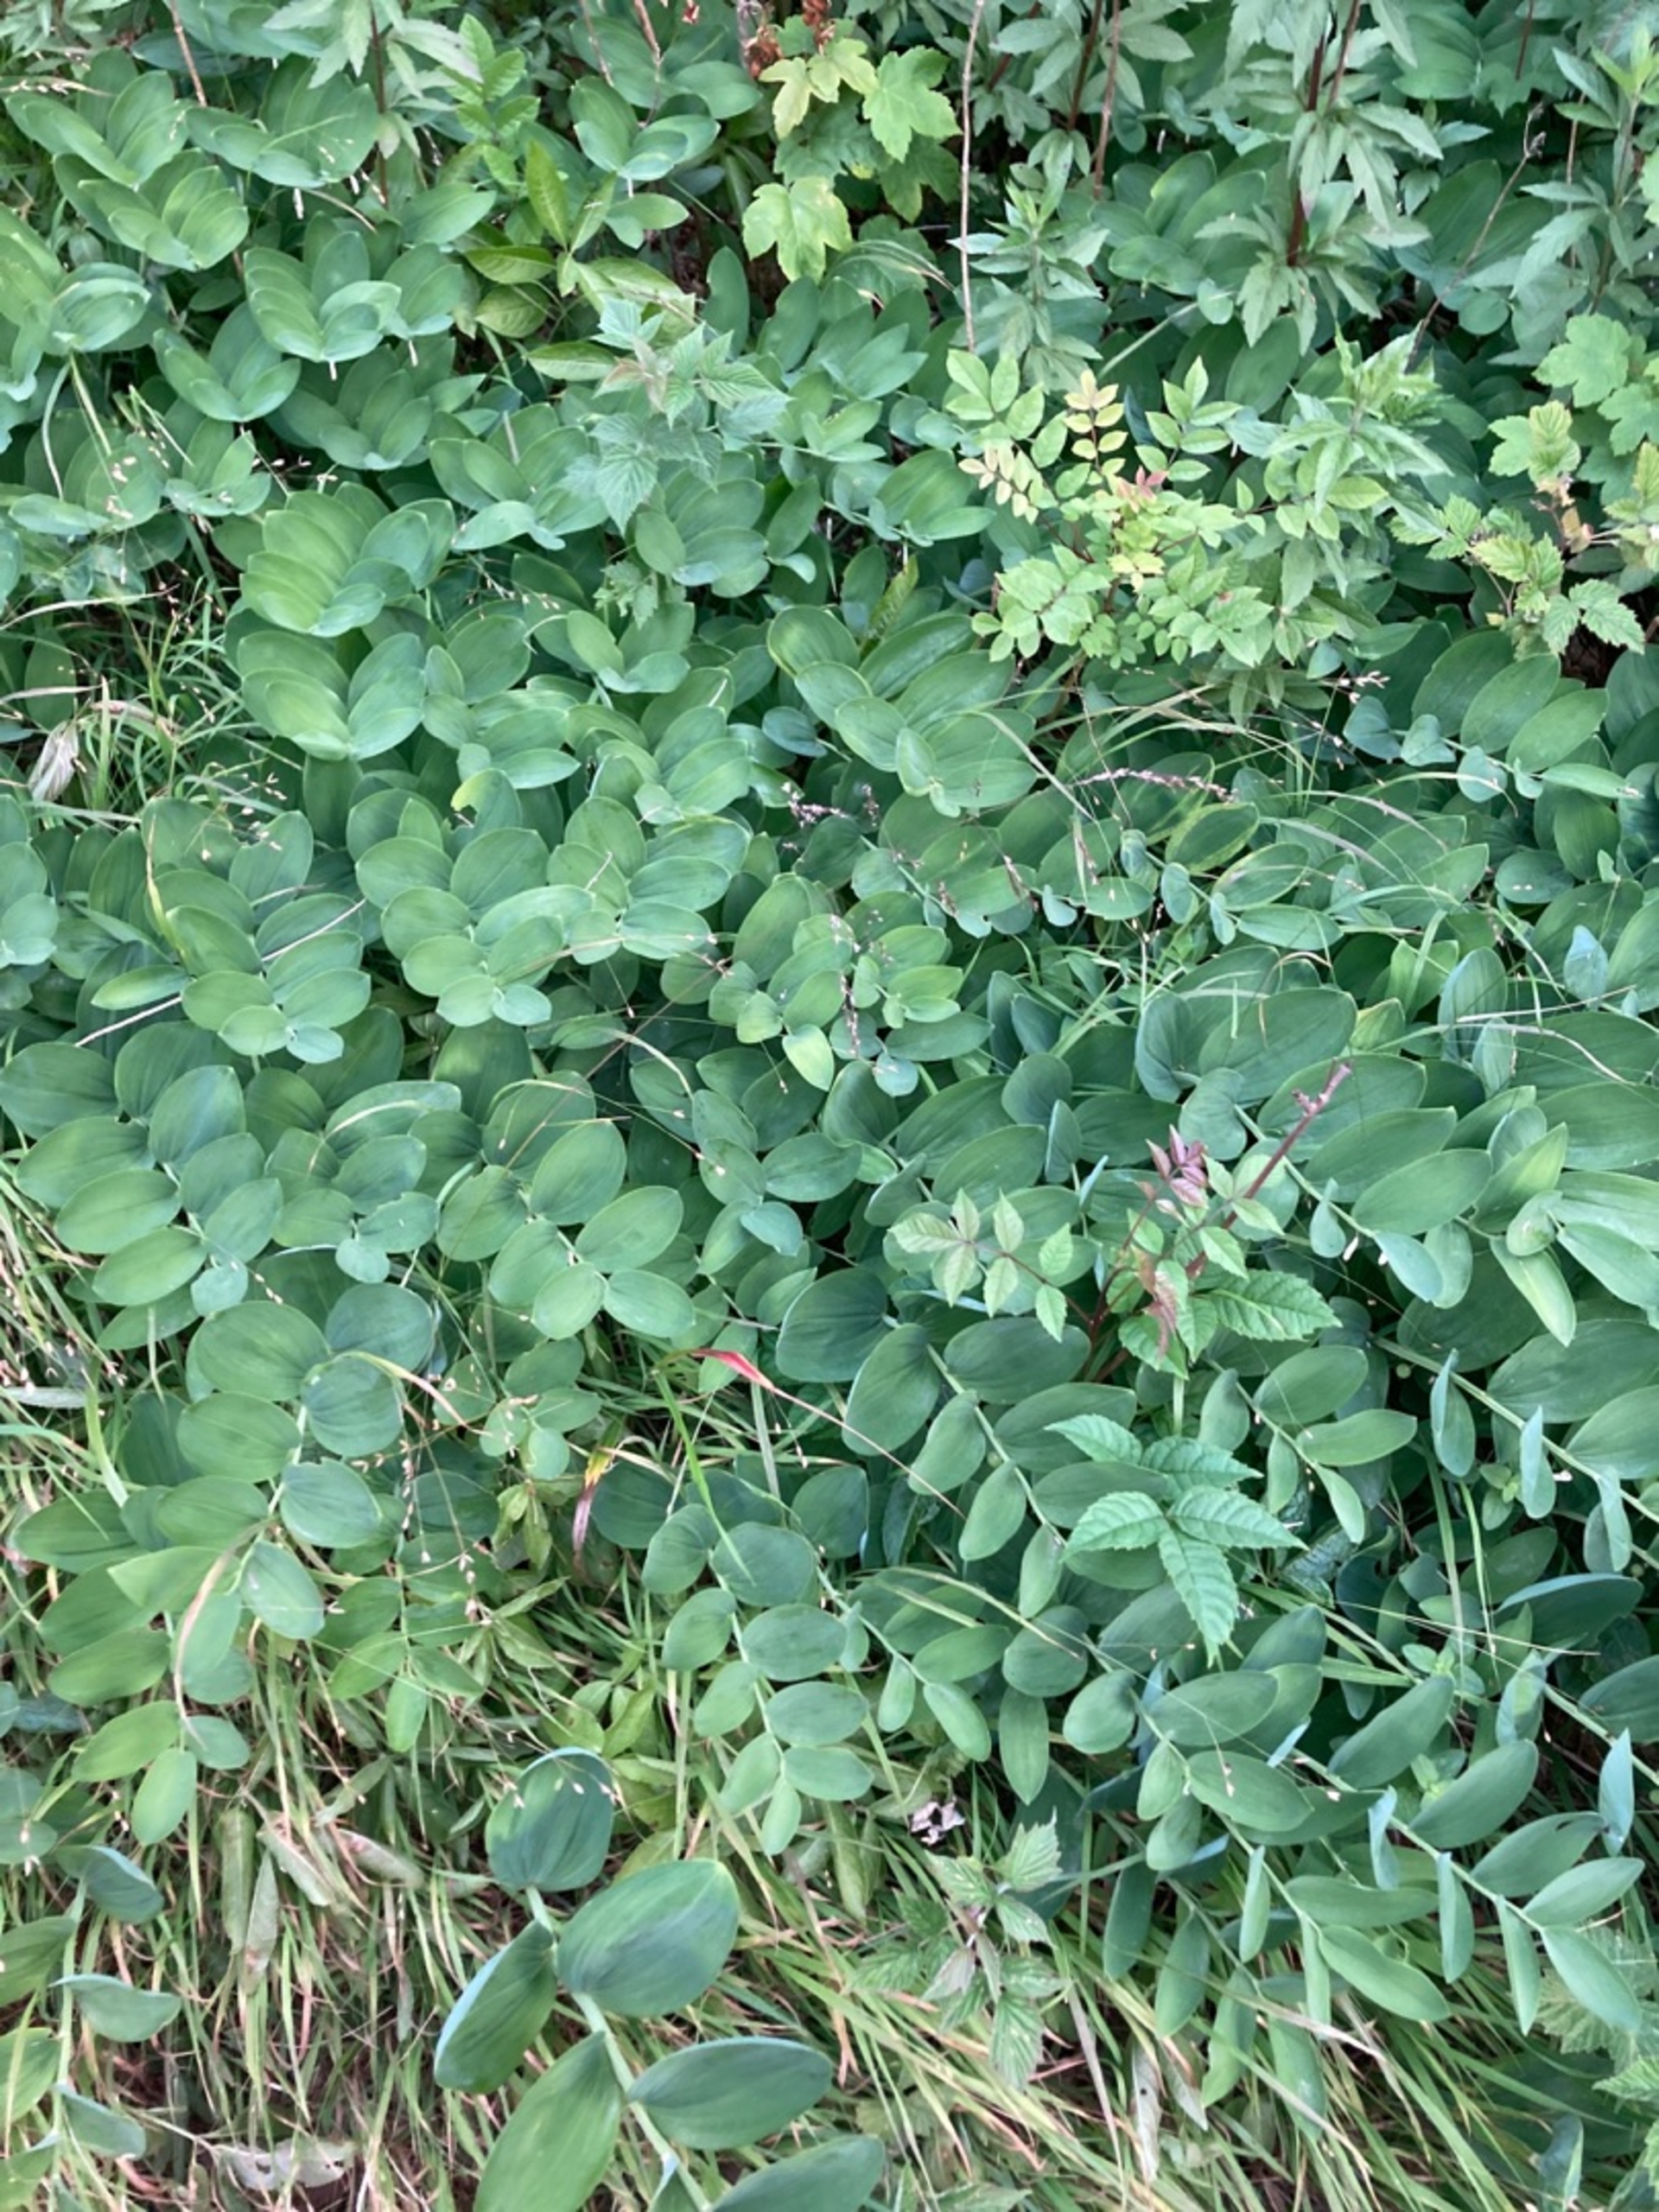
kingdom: Plantae
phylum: Tracheophyta
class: Liliopsida
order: Asparagales
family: Asparagaceae
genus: Polygonatum
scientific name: Polygonatum odoratum
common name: Kantet konval
